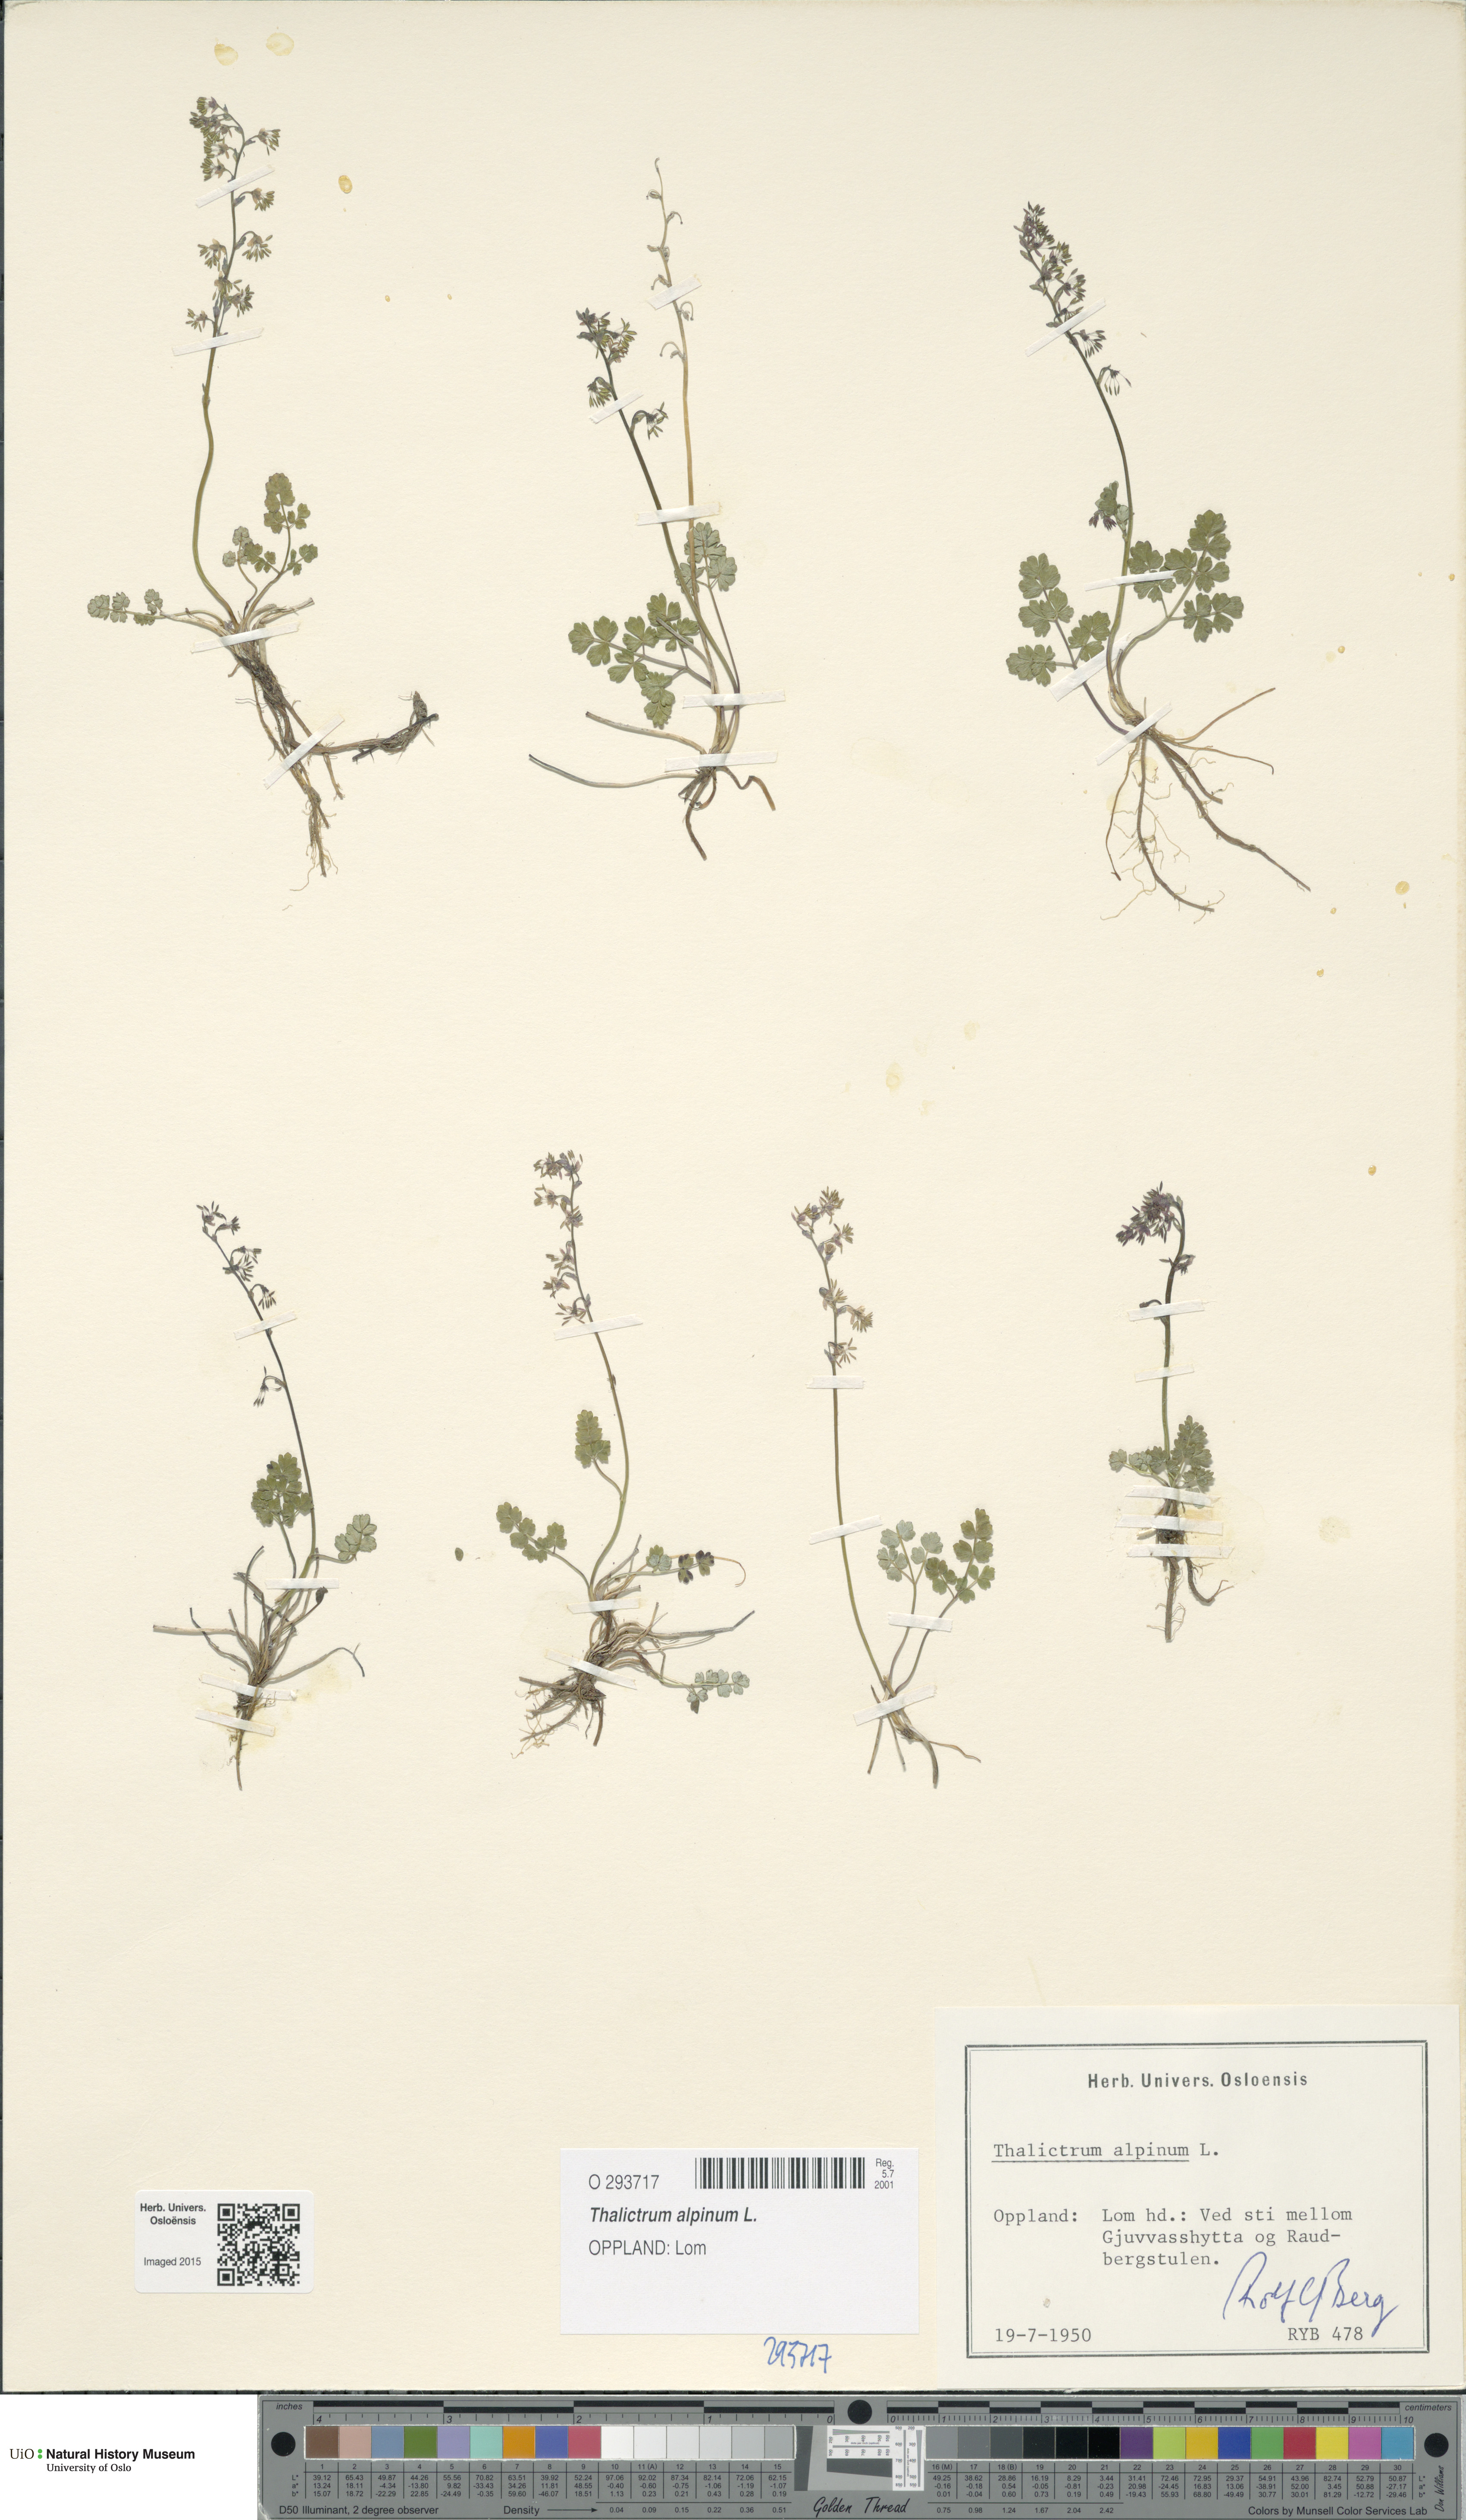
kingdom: Plantae
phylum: Tracheophyta
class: Magnoliopsida
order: Ranunculales
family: Ranunculaceae
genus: Thalictrum
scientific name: Thalictrum alpinum
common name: Alpine meadow-rue
